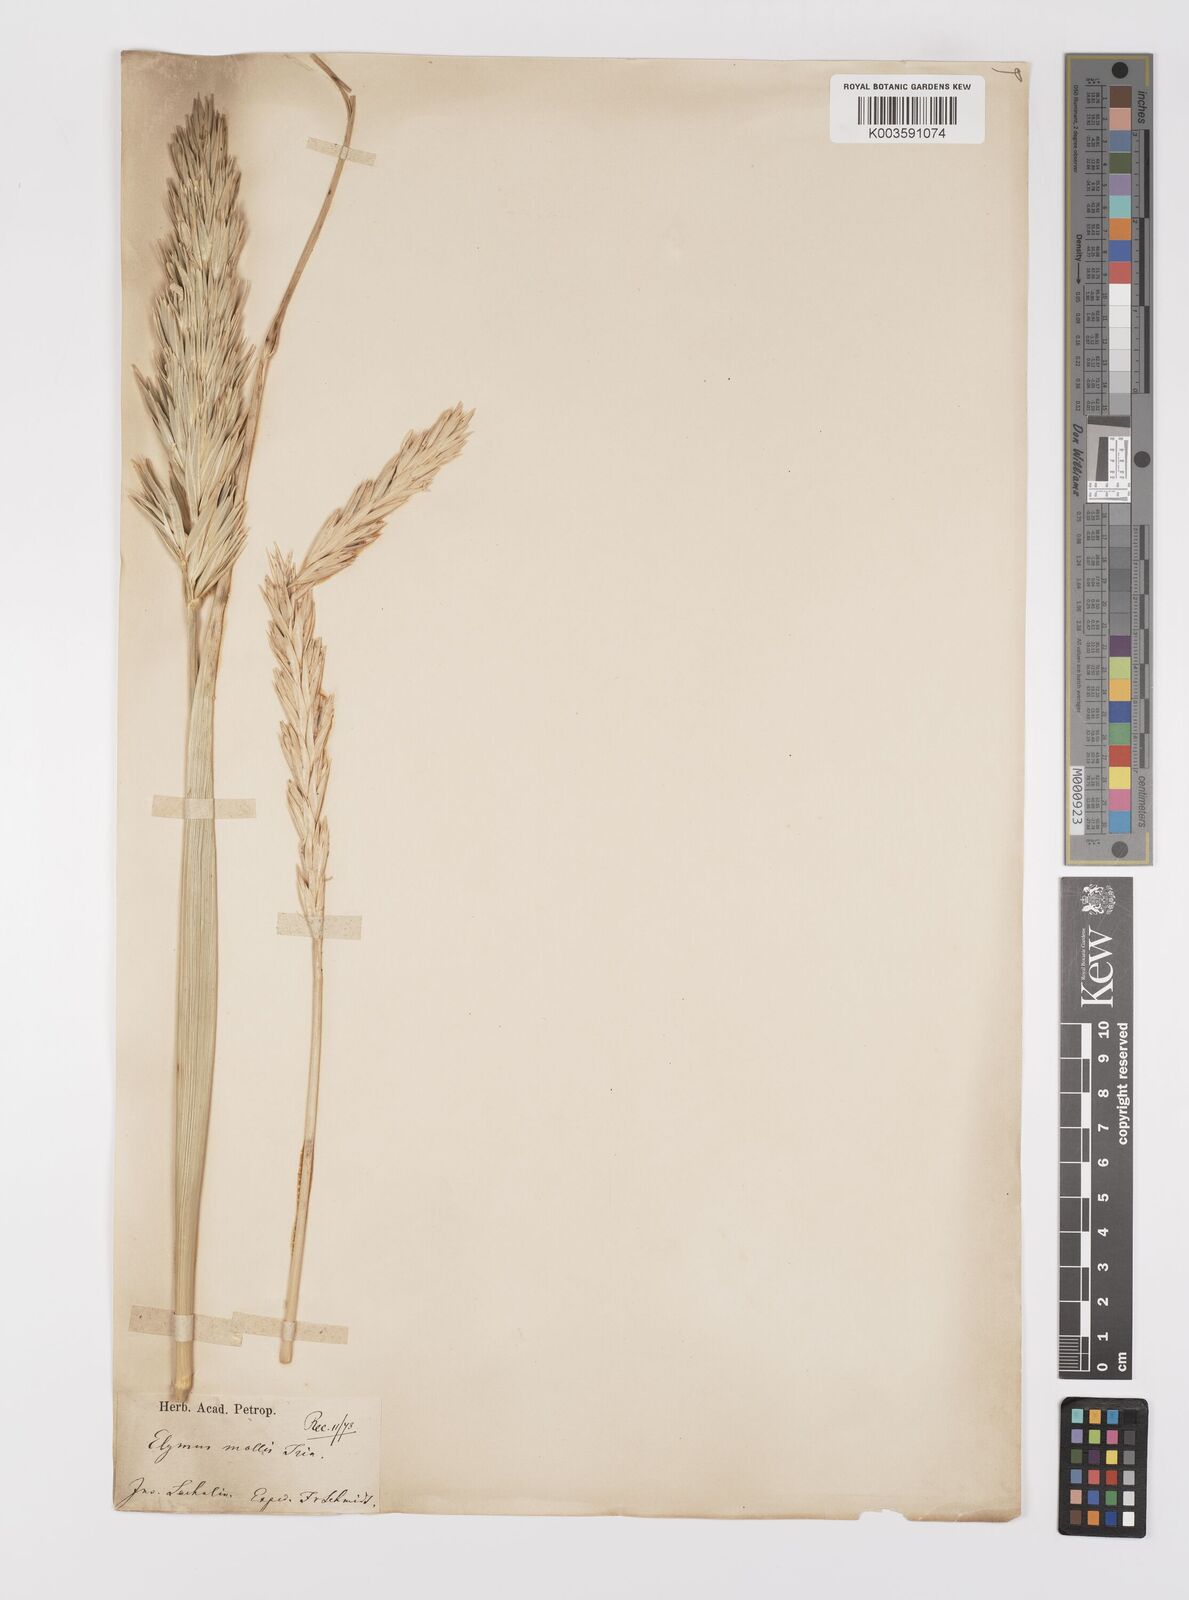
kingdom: Plantae
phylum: Tracheophyta
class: Liliopsida
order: Poales
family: Poaceae
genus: Leymus
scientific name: Leymus mollis
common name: American dune grass
